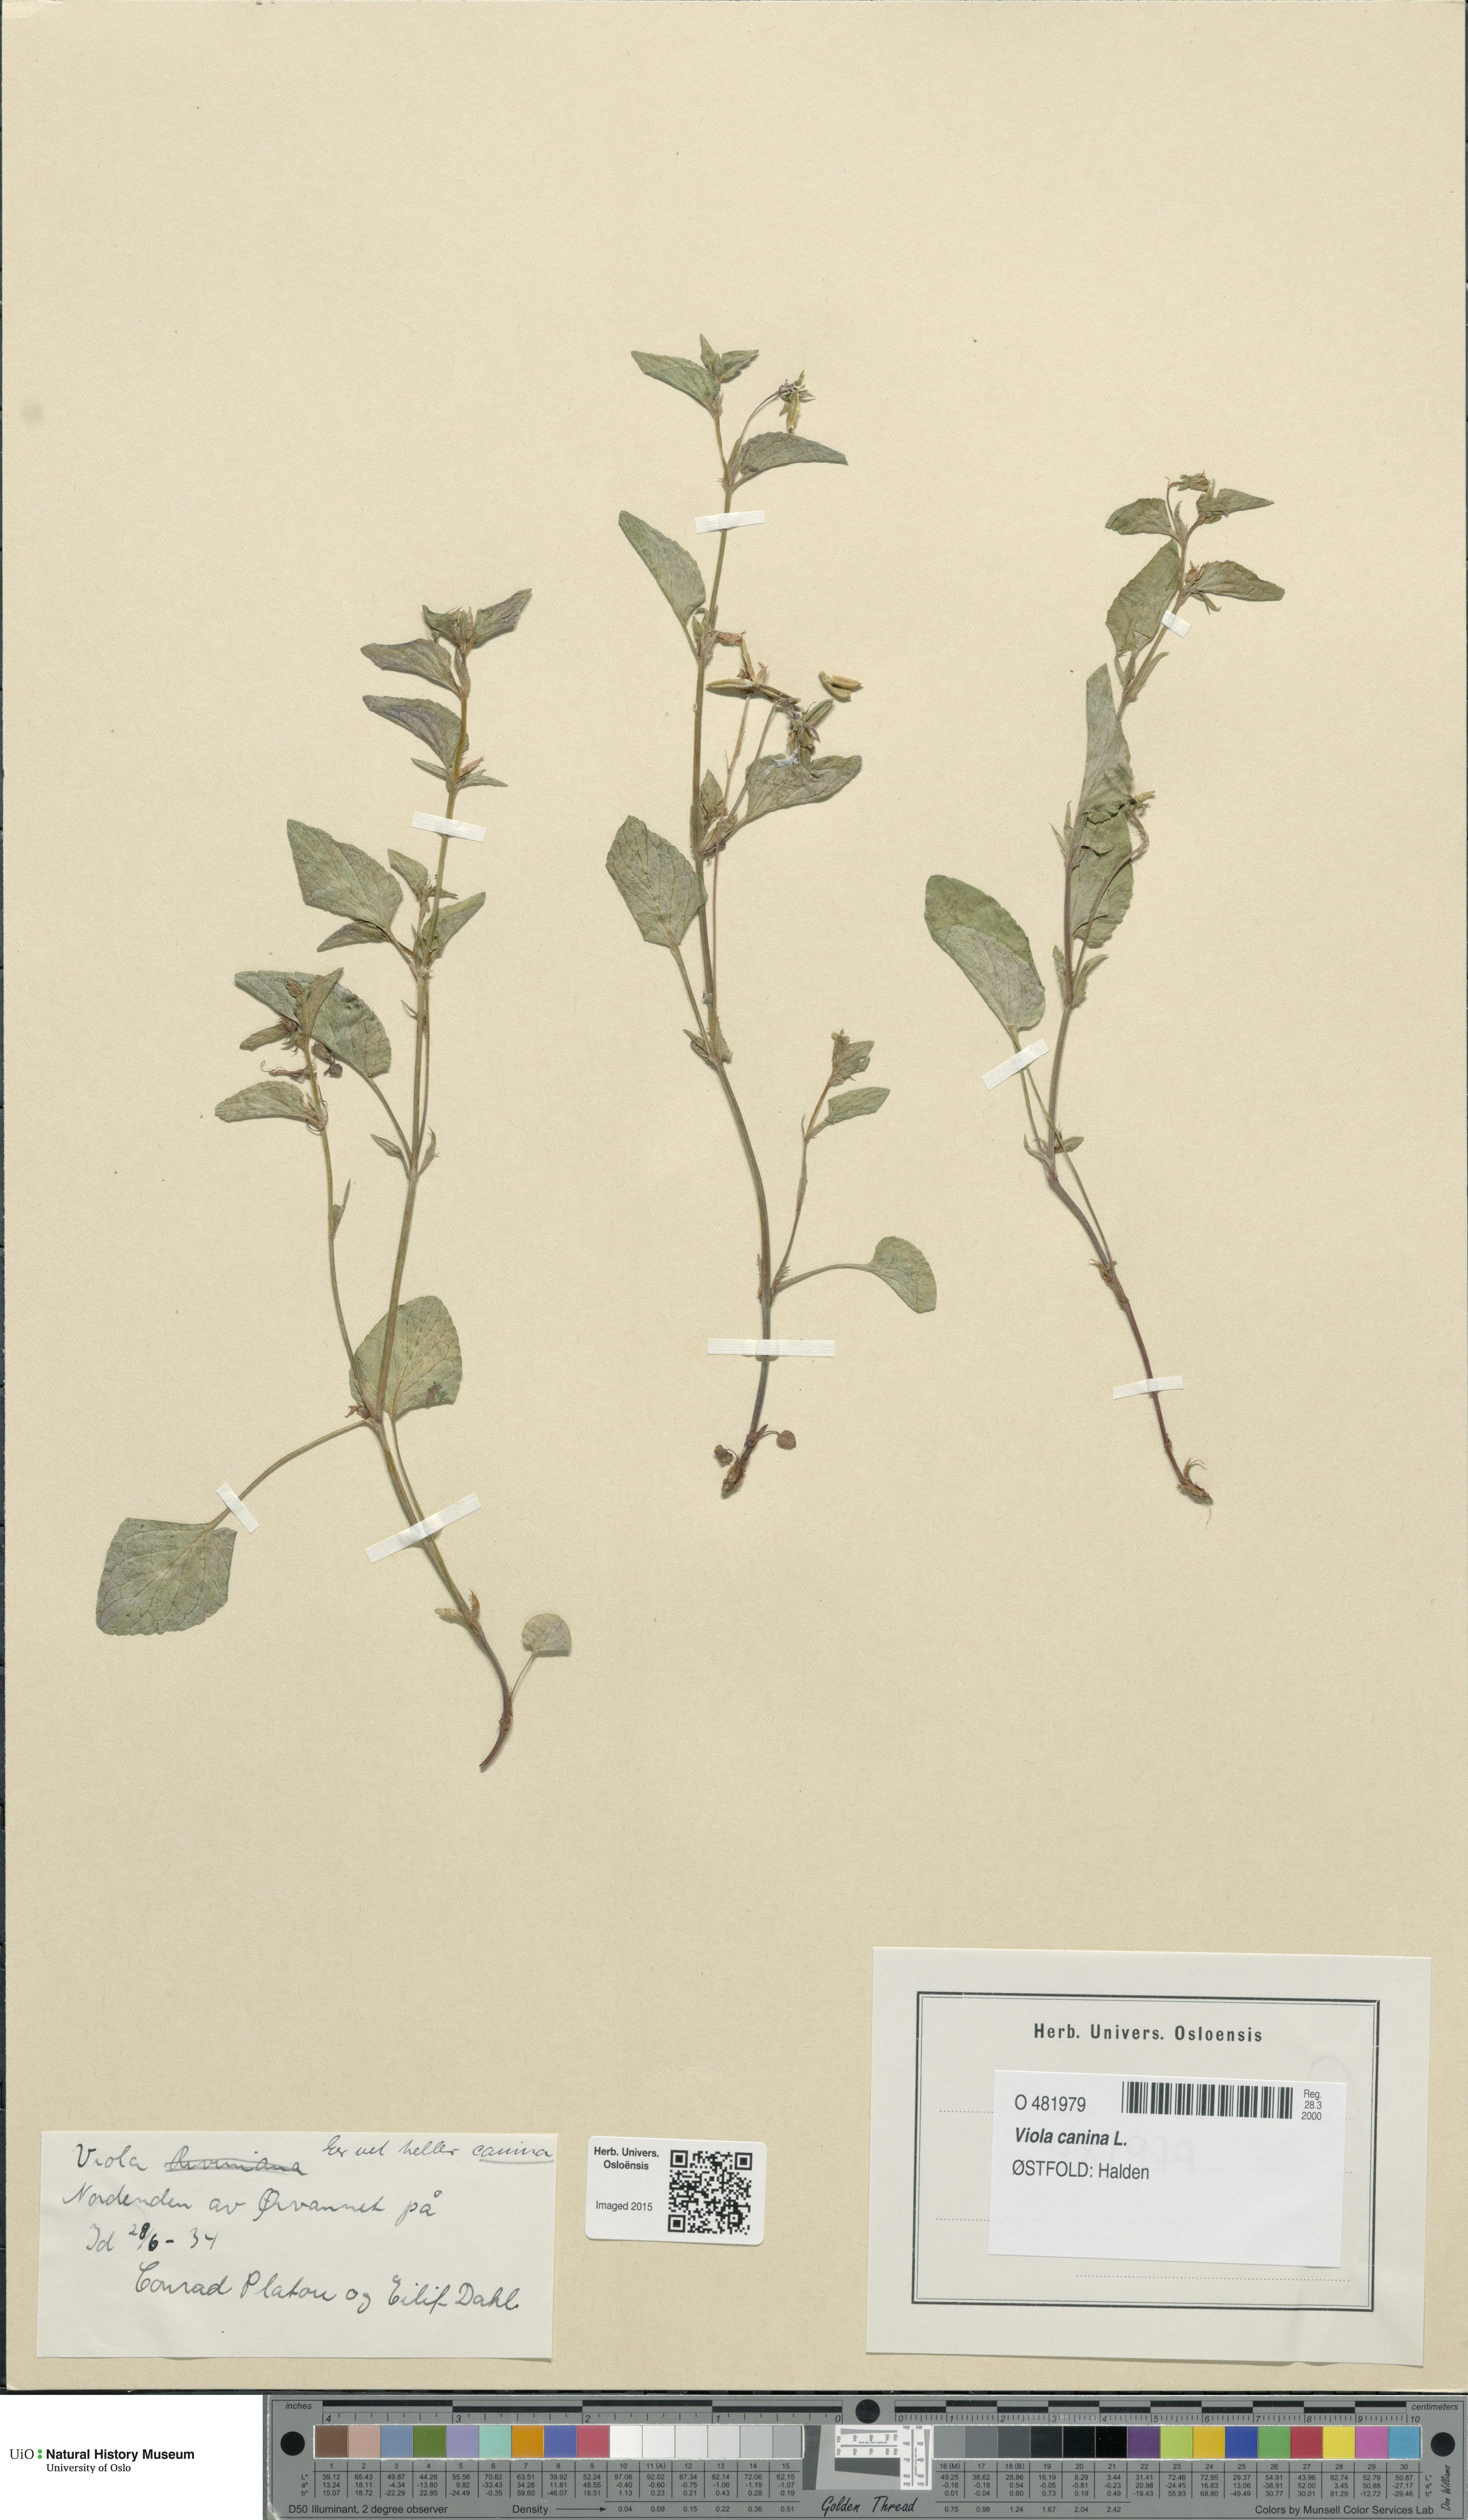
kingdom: Plantae
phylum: Tracheophyta
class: Magnoliopsida
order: Malpighiales
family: Violaceae
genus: Viola
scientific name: Viola canina
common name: Heath dog-violet
